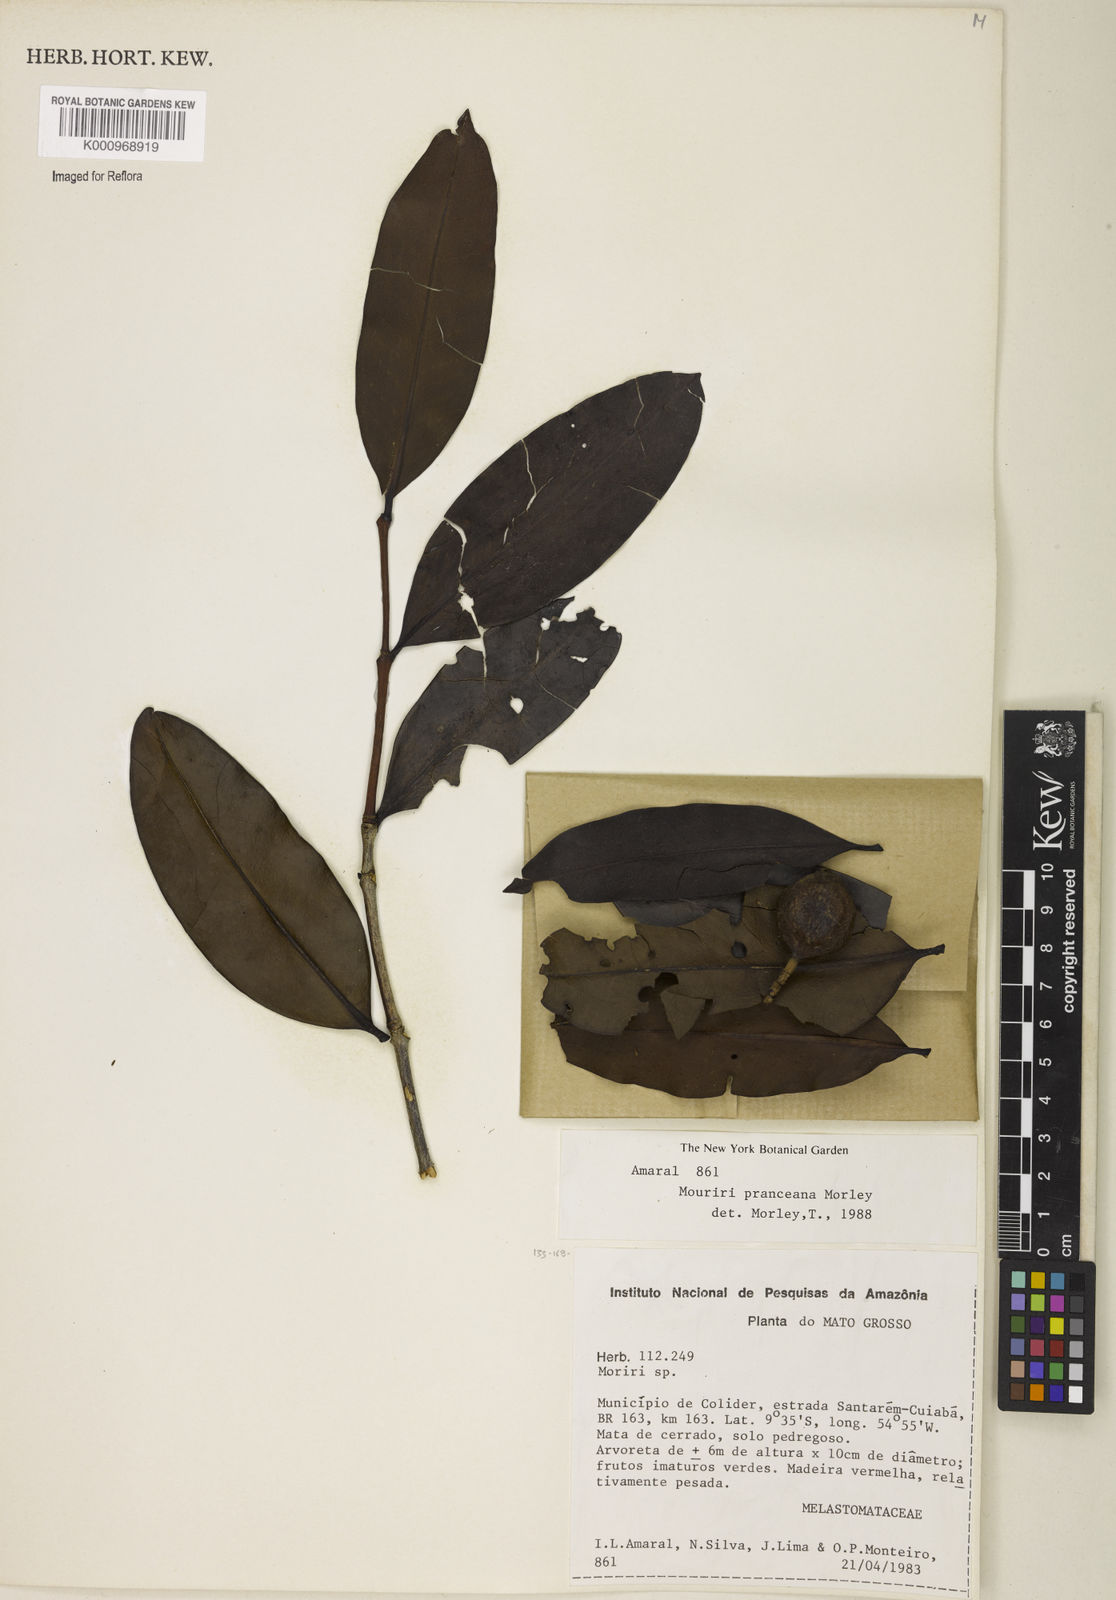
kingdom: Plantae
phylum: Tracheophyta
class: Magnoliopsida
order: Myrtales
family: Melastomataceae
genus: Mouriri
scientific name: Mouriri pranceana
